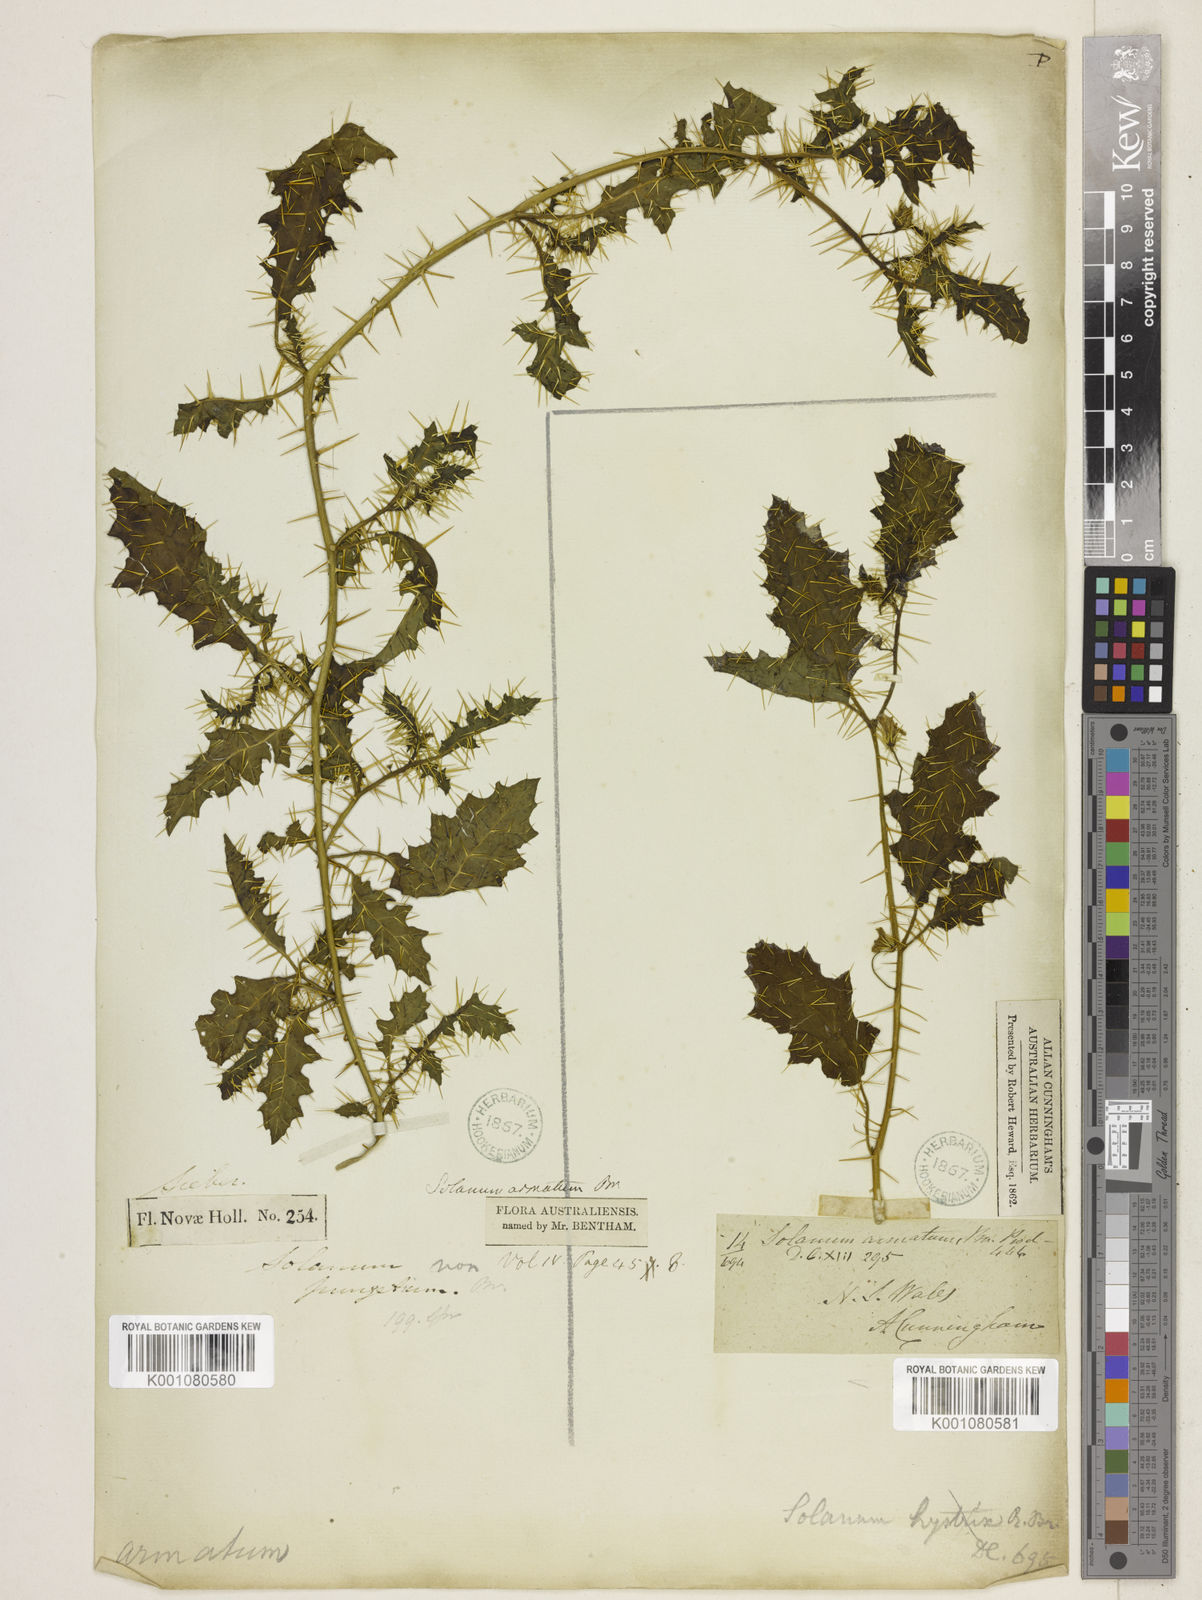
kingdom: Plantae
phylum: Tracheophyta
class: Magnoliopsida
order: Solanales
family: Solanaceae
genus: Solanum
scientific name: Solanum prinophyllum
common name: Forest nightshade
